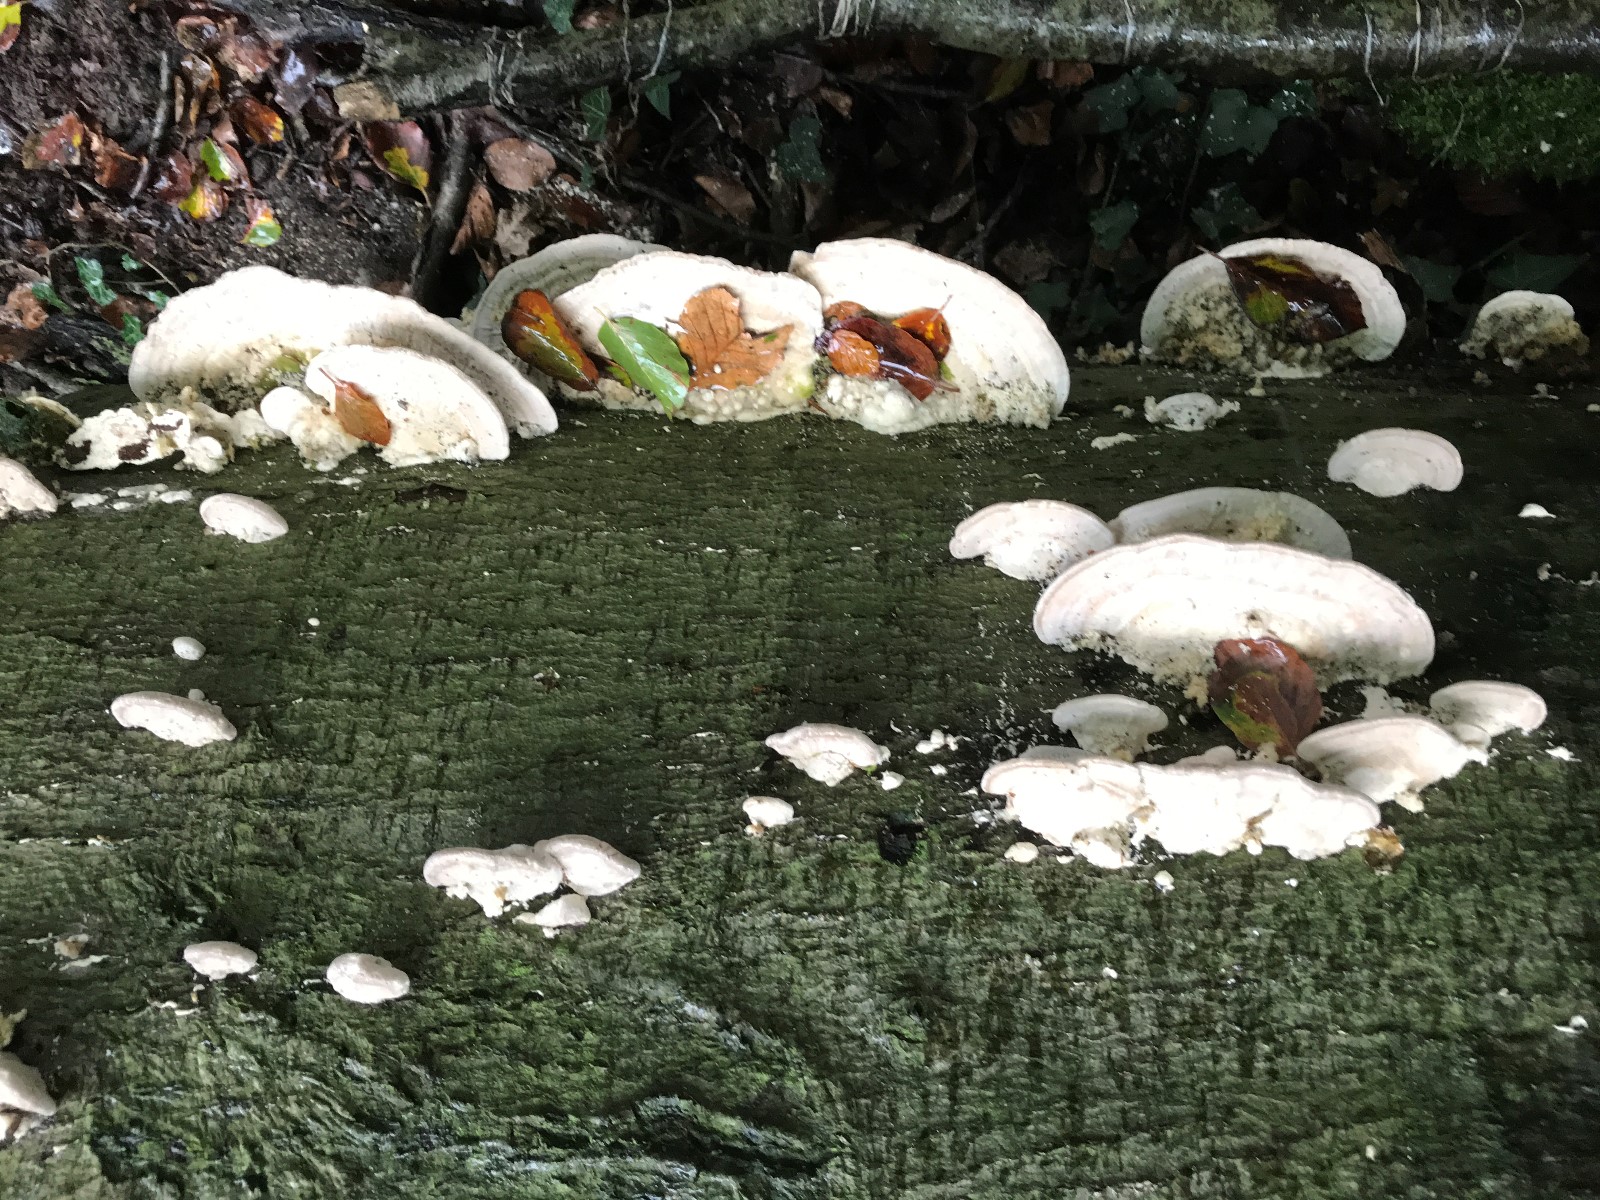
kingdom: Fungi
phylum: Basidiomycota
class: Agaricomycetes
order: Polyporales
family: Polyporaceae
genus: Trametes
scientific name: Trametes gibbosa
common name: puklet læderporesvamp
